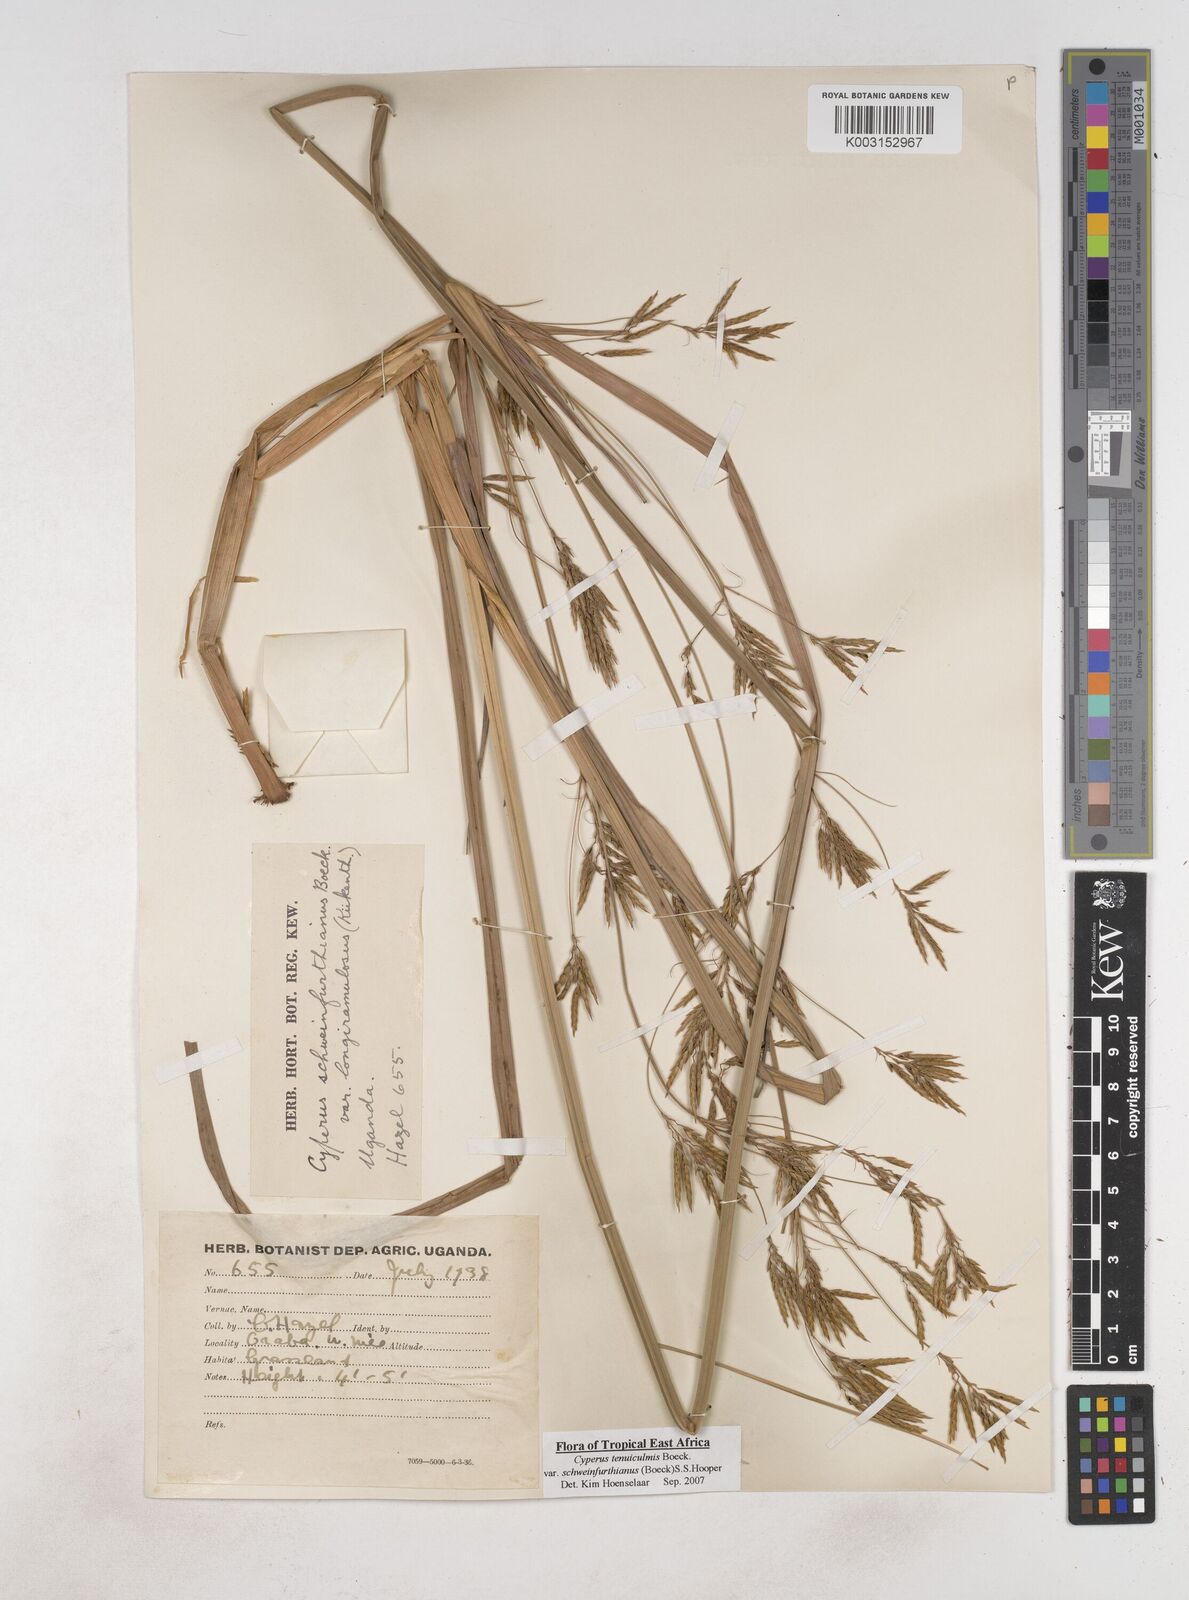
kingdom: Plantae
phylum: Tracheophyta
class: Liliopsida
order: Poales
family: Cyperaceae
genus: Cyperus
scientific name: Cyperus tenuiculmis
